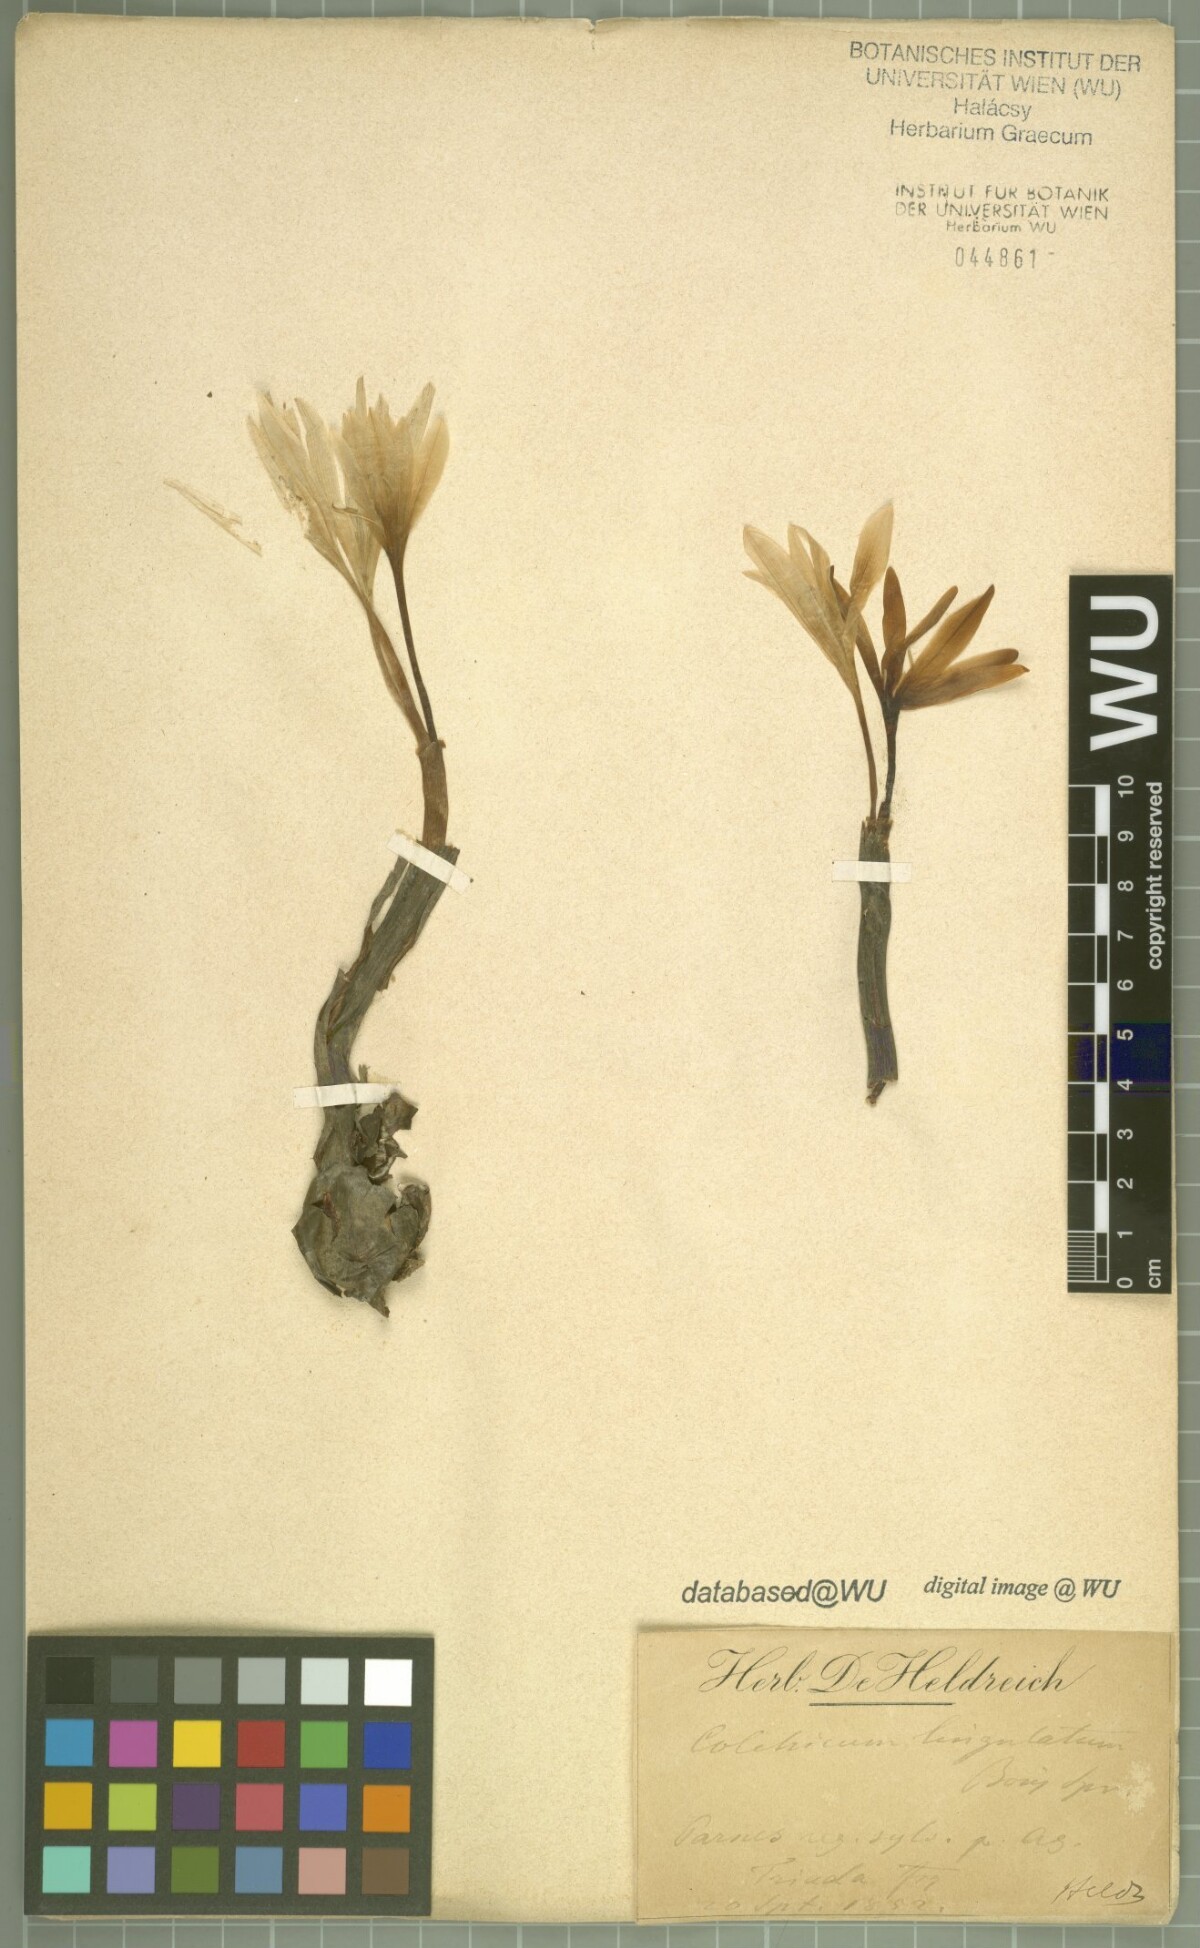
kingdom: Plantae
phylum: Tracheophyta
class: Liliopsida
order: Liliales
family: Colchicaceae
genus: Colchicum
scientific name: Colchicum lingulatum
